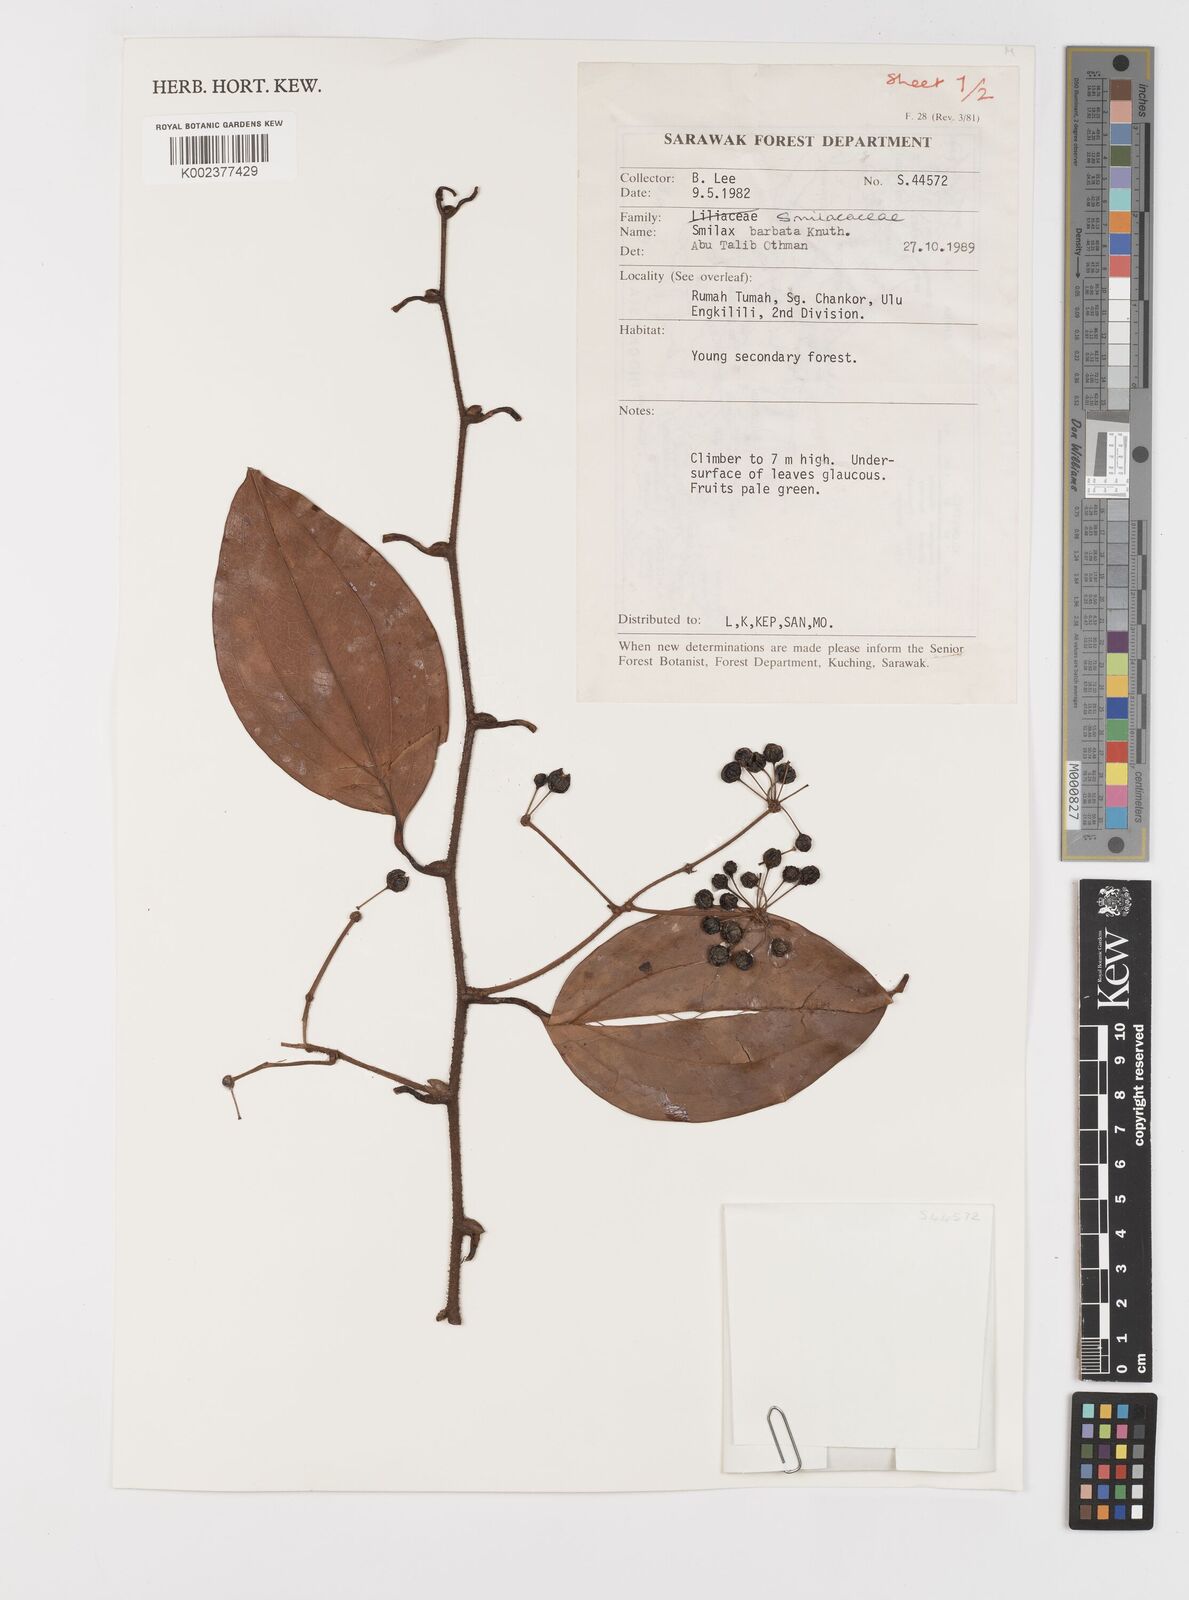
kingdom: Plantae
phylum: Tracheophyta
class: Liliopsida
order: Liliales
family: Smilacaceae
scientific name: Smilacaceae
